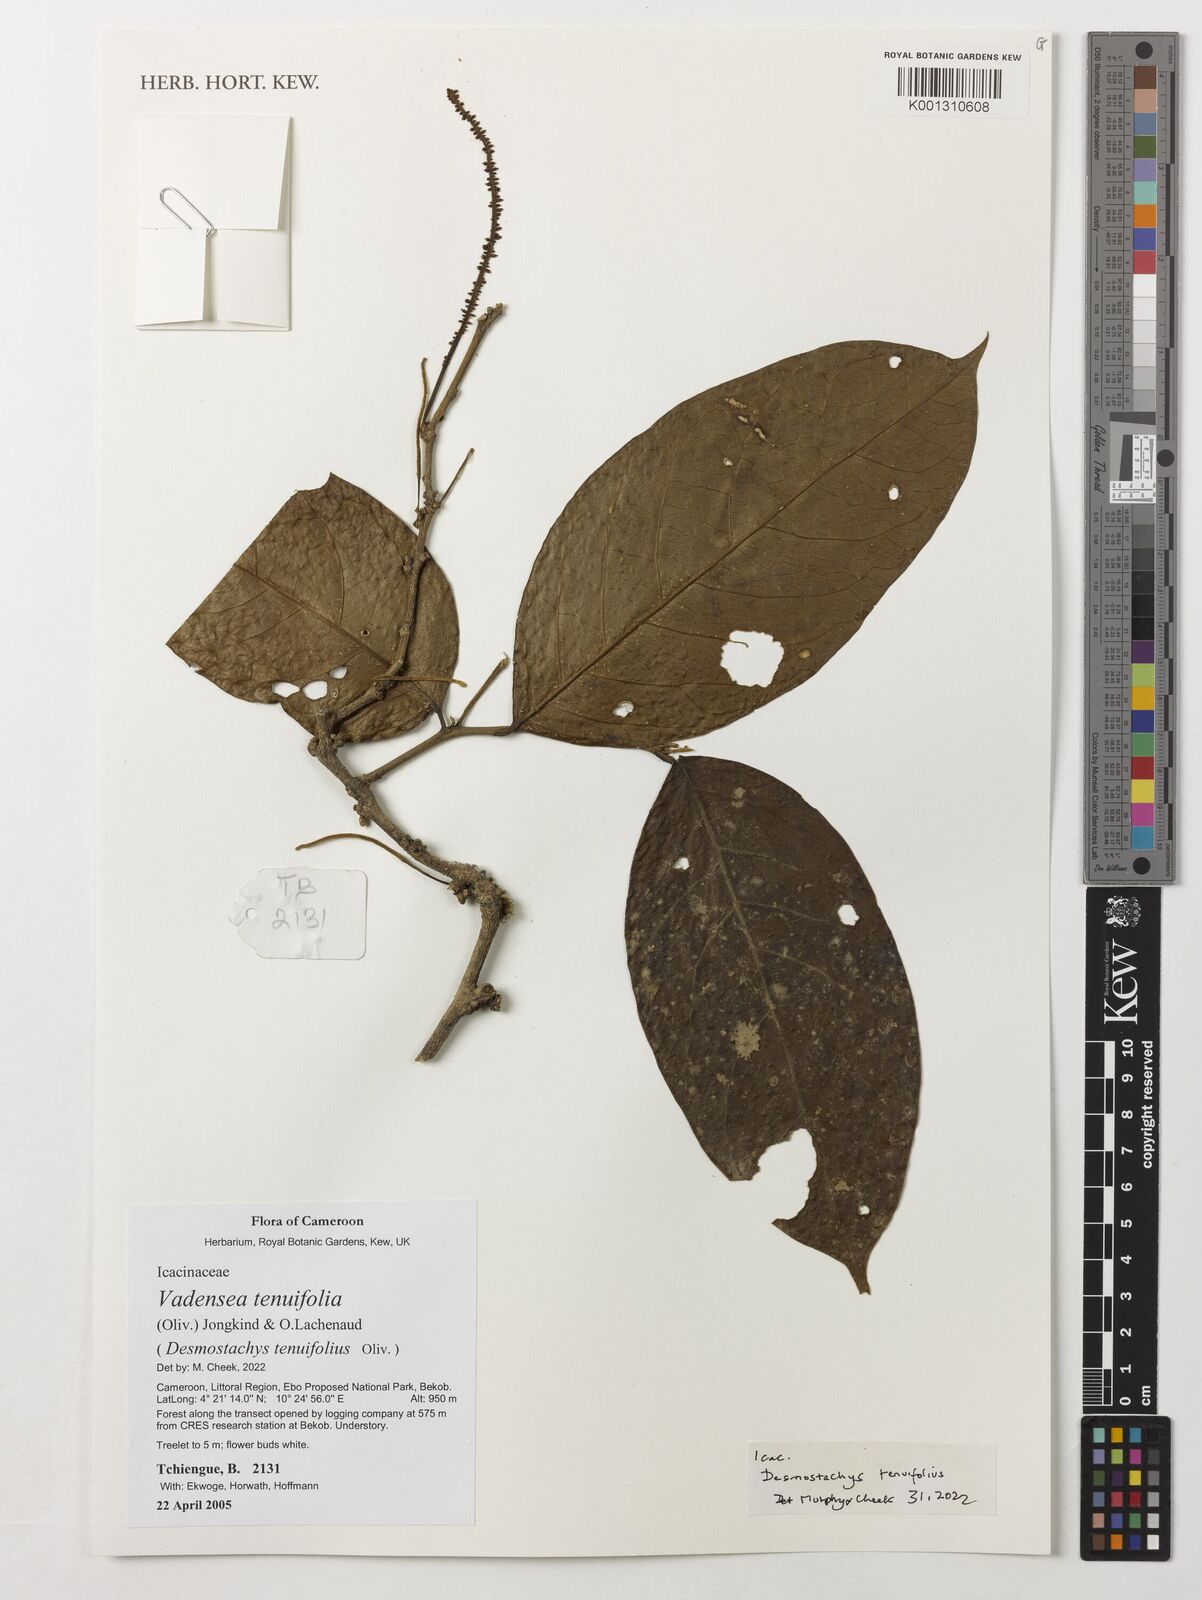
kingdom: Plantae
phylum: Tracheophyta
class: Magnoliopsida
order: Icacinales
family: Icacinaceae
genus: Vadensea
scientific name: Vadensea tenuifolia
